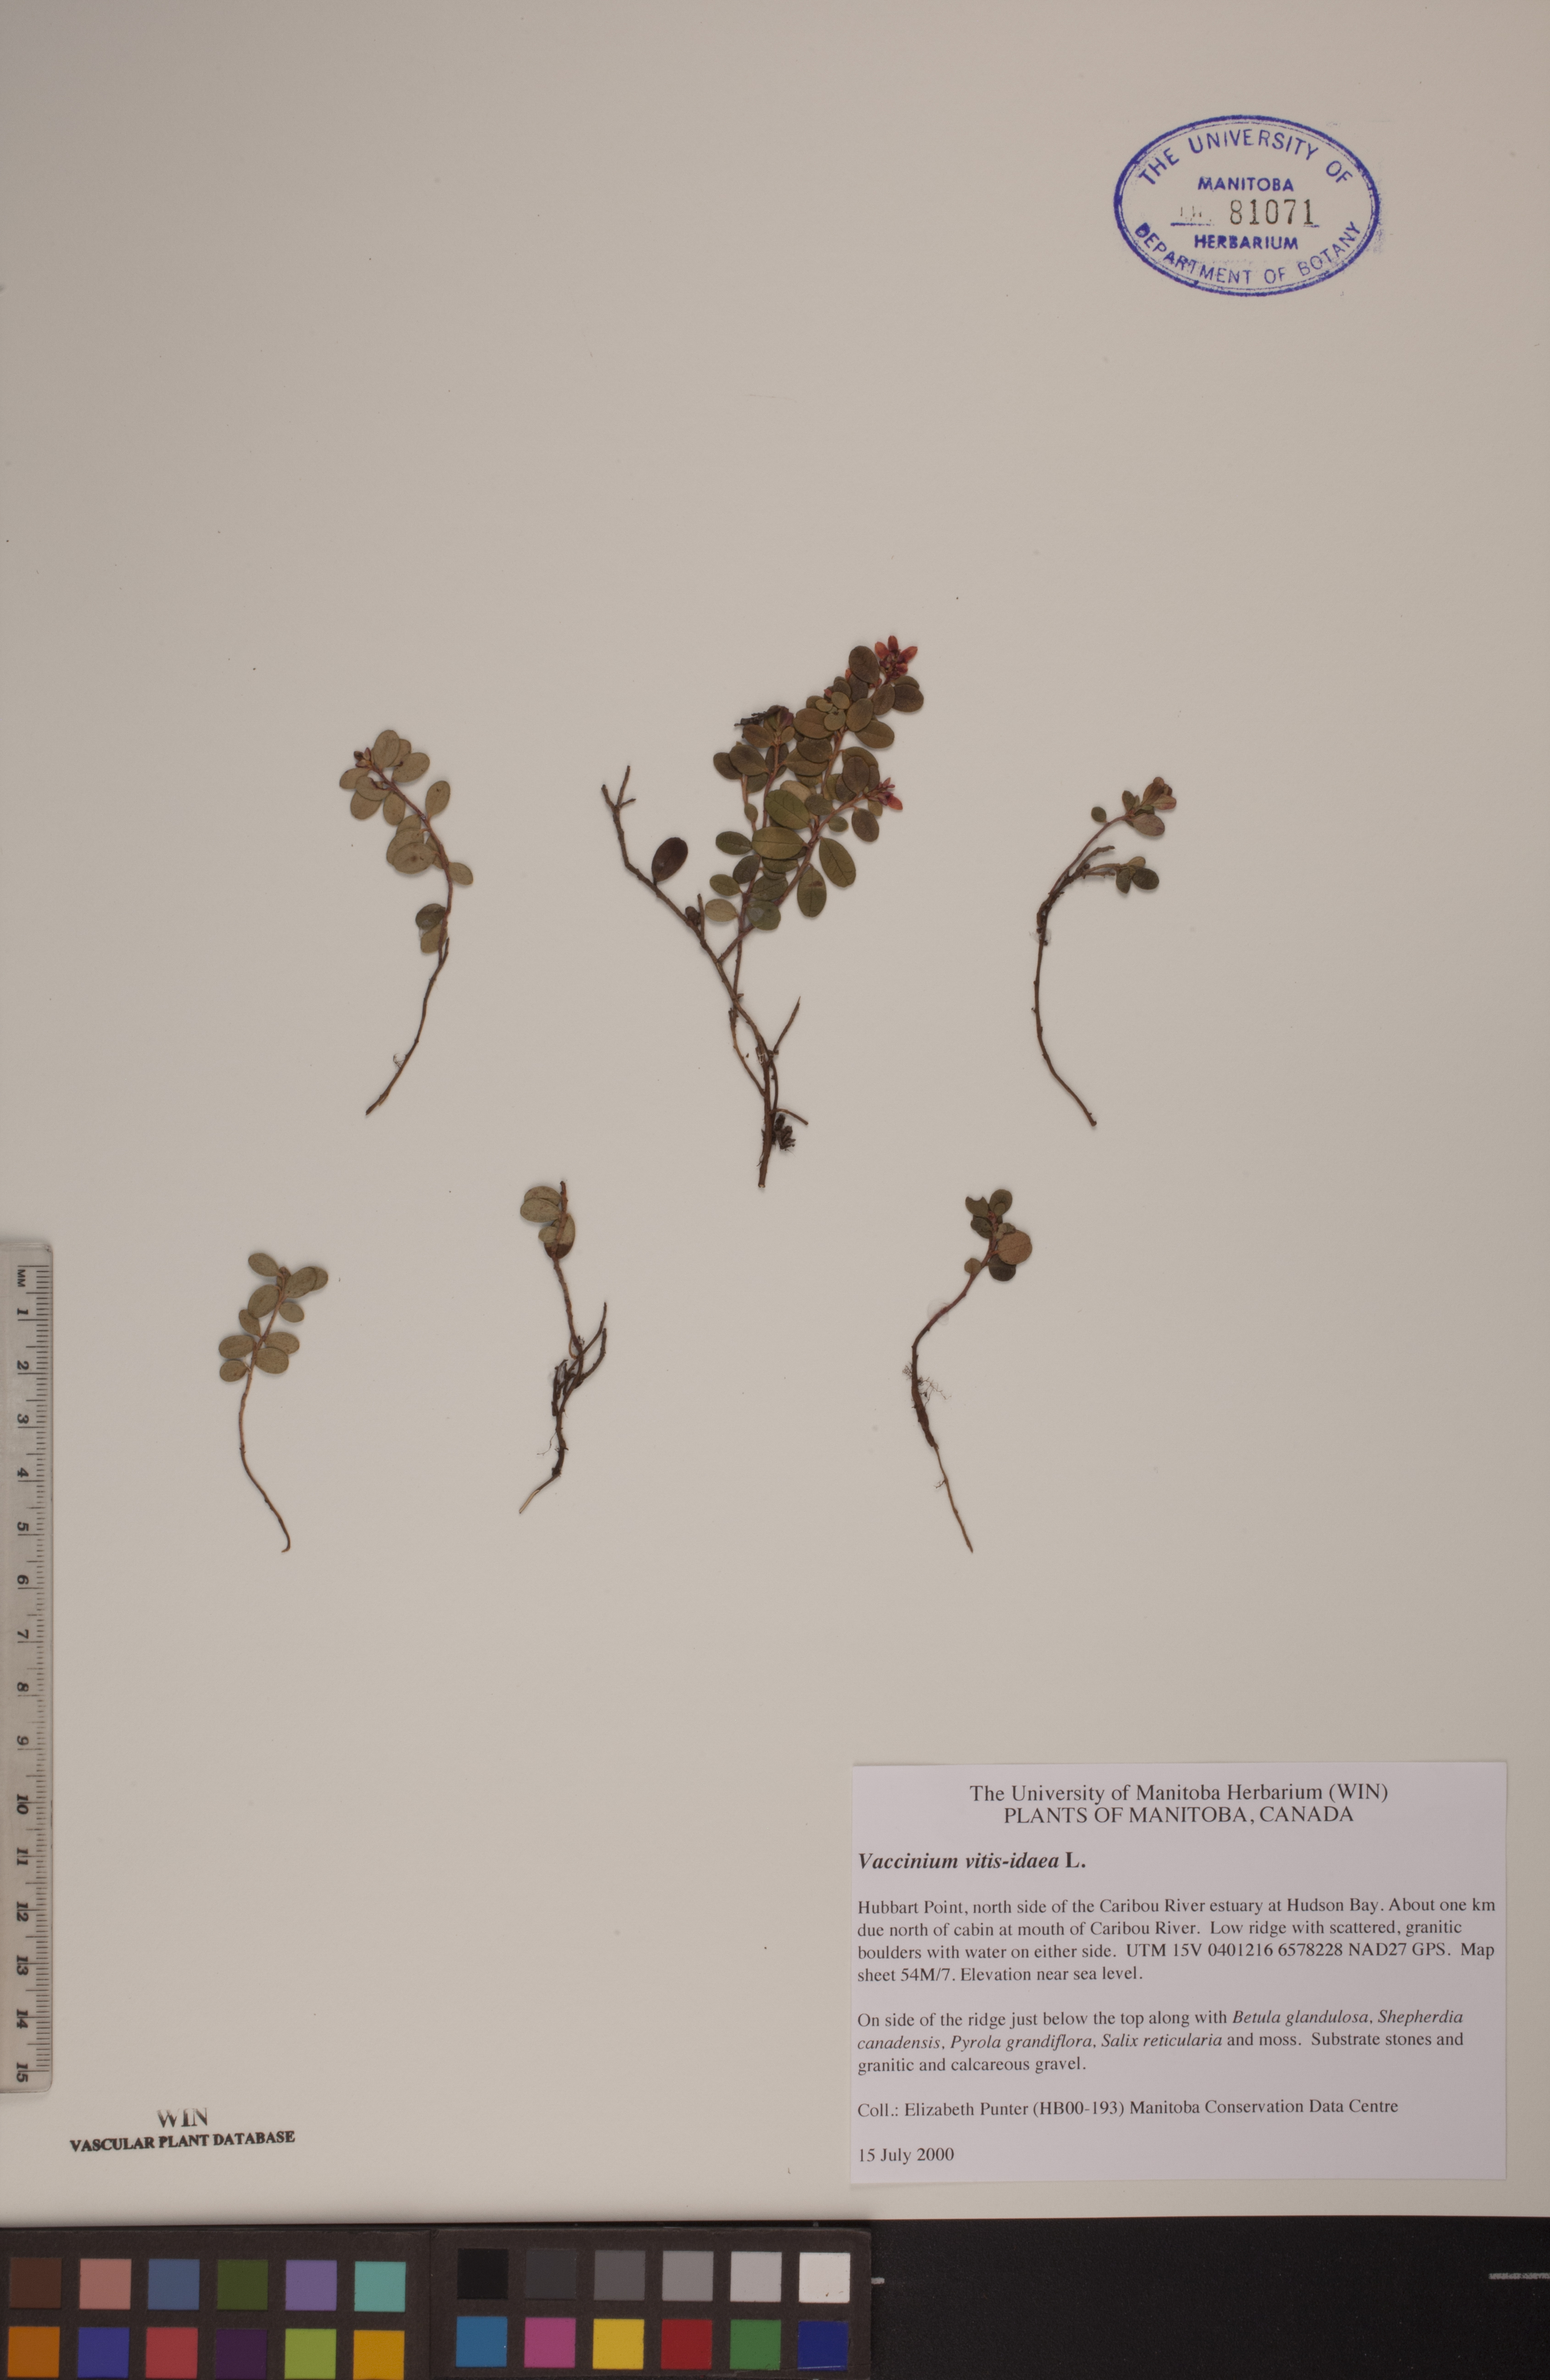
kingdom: Plantae
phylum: Tracheophyta
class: Magnoliopsida
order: Ericales
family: Ericaceae
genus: Vaccinium
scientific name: Vaccinium vitis-idaea
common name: Cowberry
